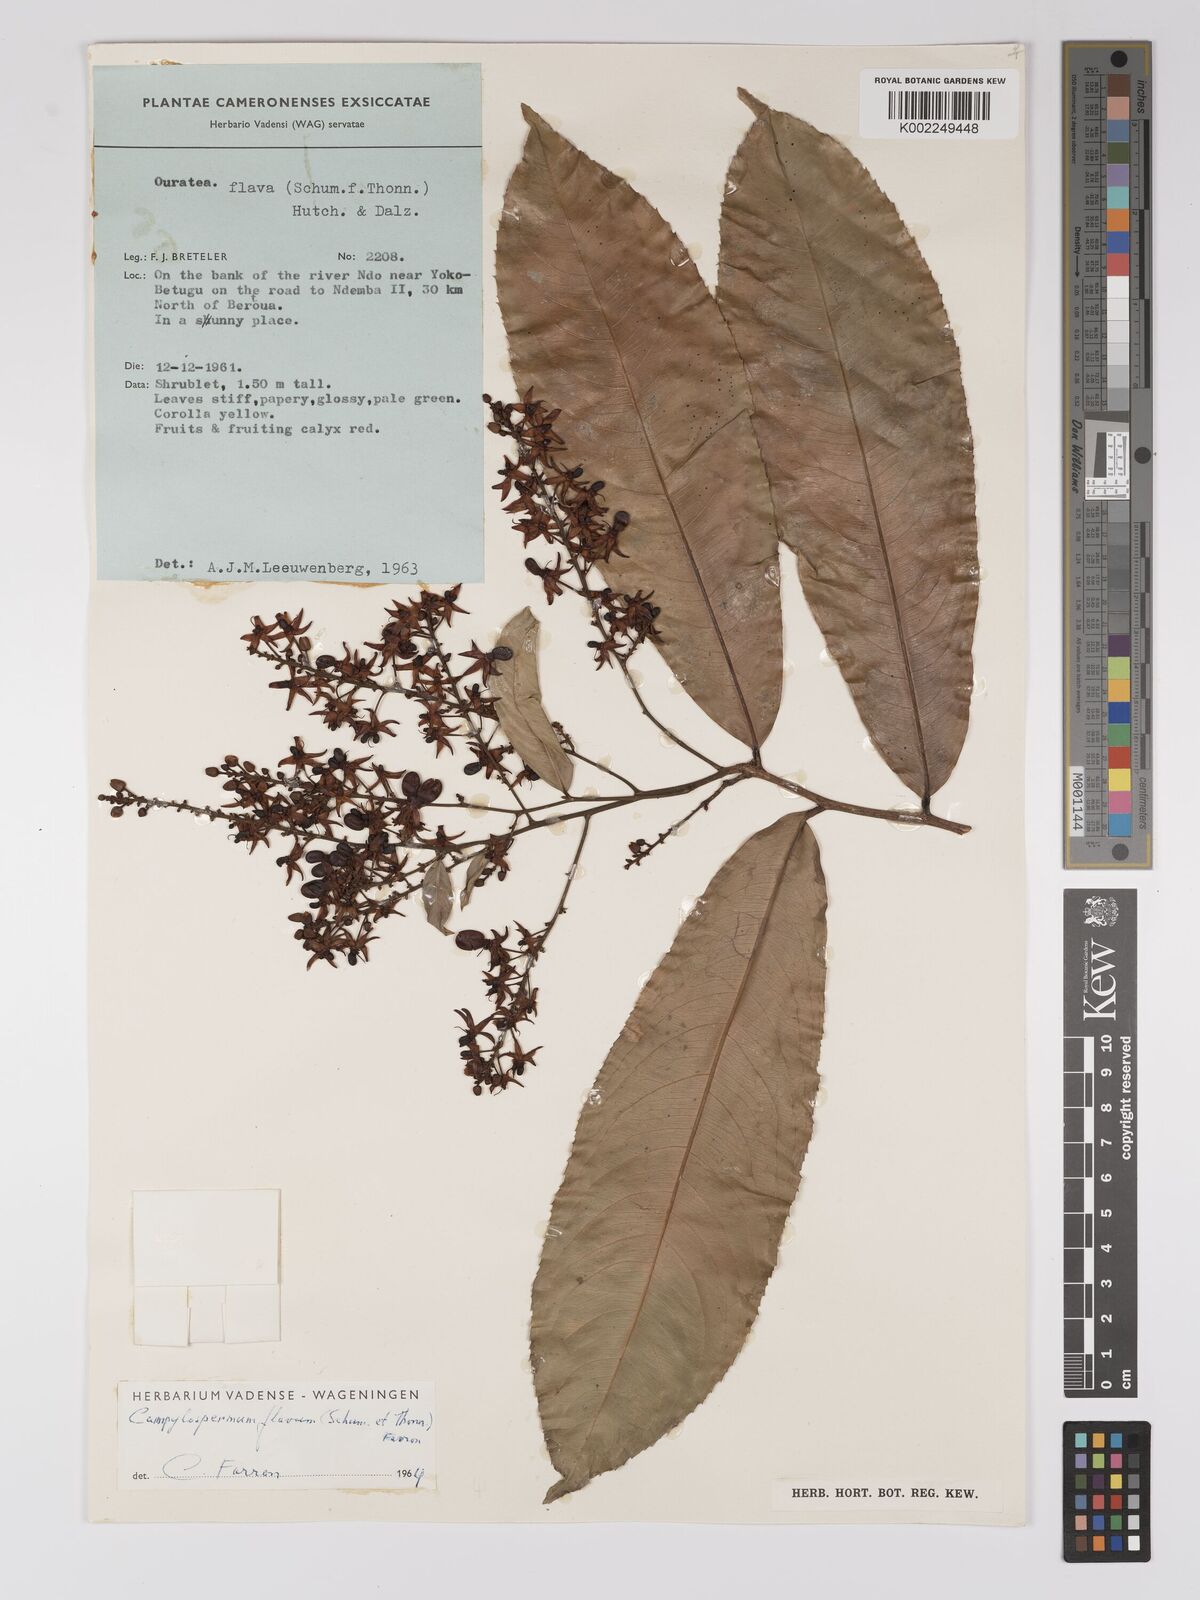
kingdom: Plantae
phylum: Tracheophyta
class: Magnoliopsida
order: Malpighiales
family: Ochnaceae
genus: Campylospermum
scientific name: Campylospermum flavum
